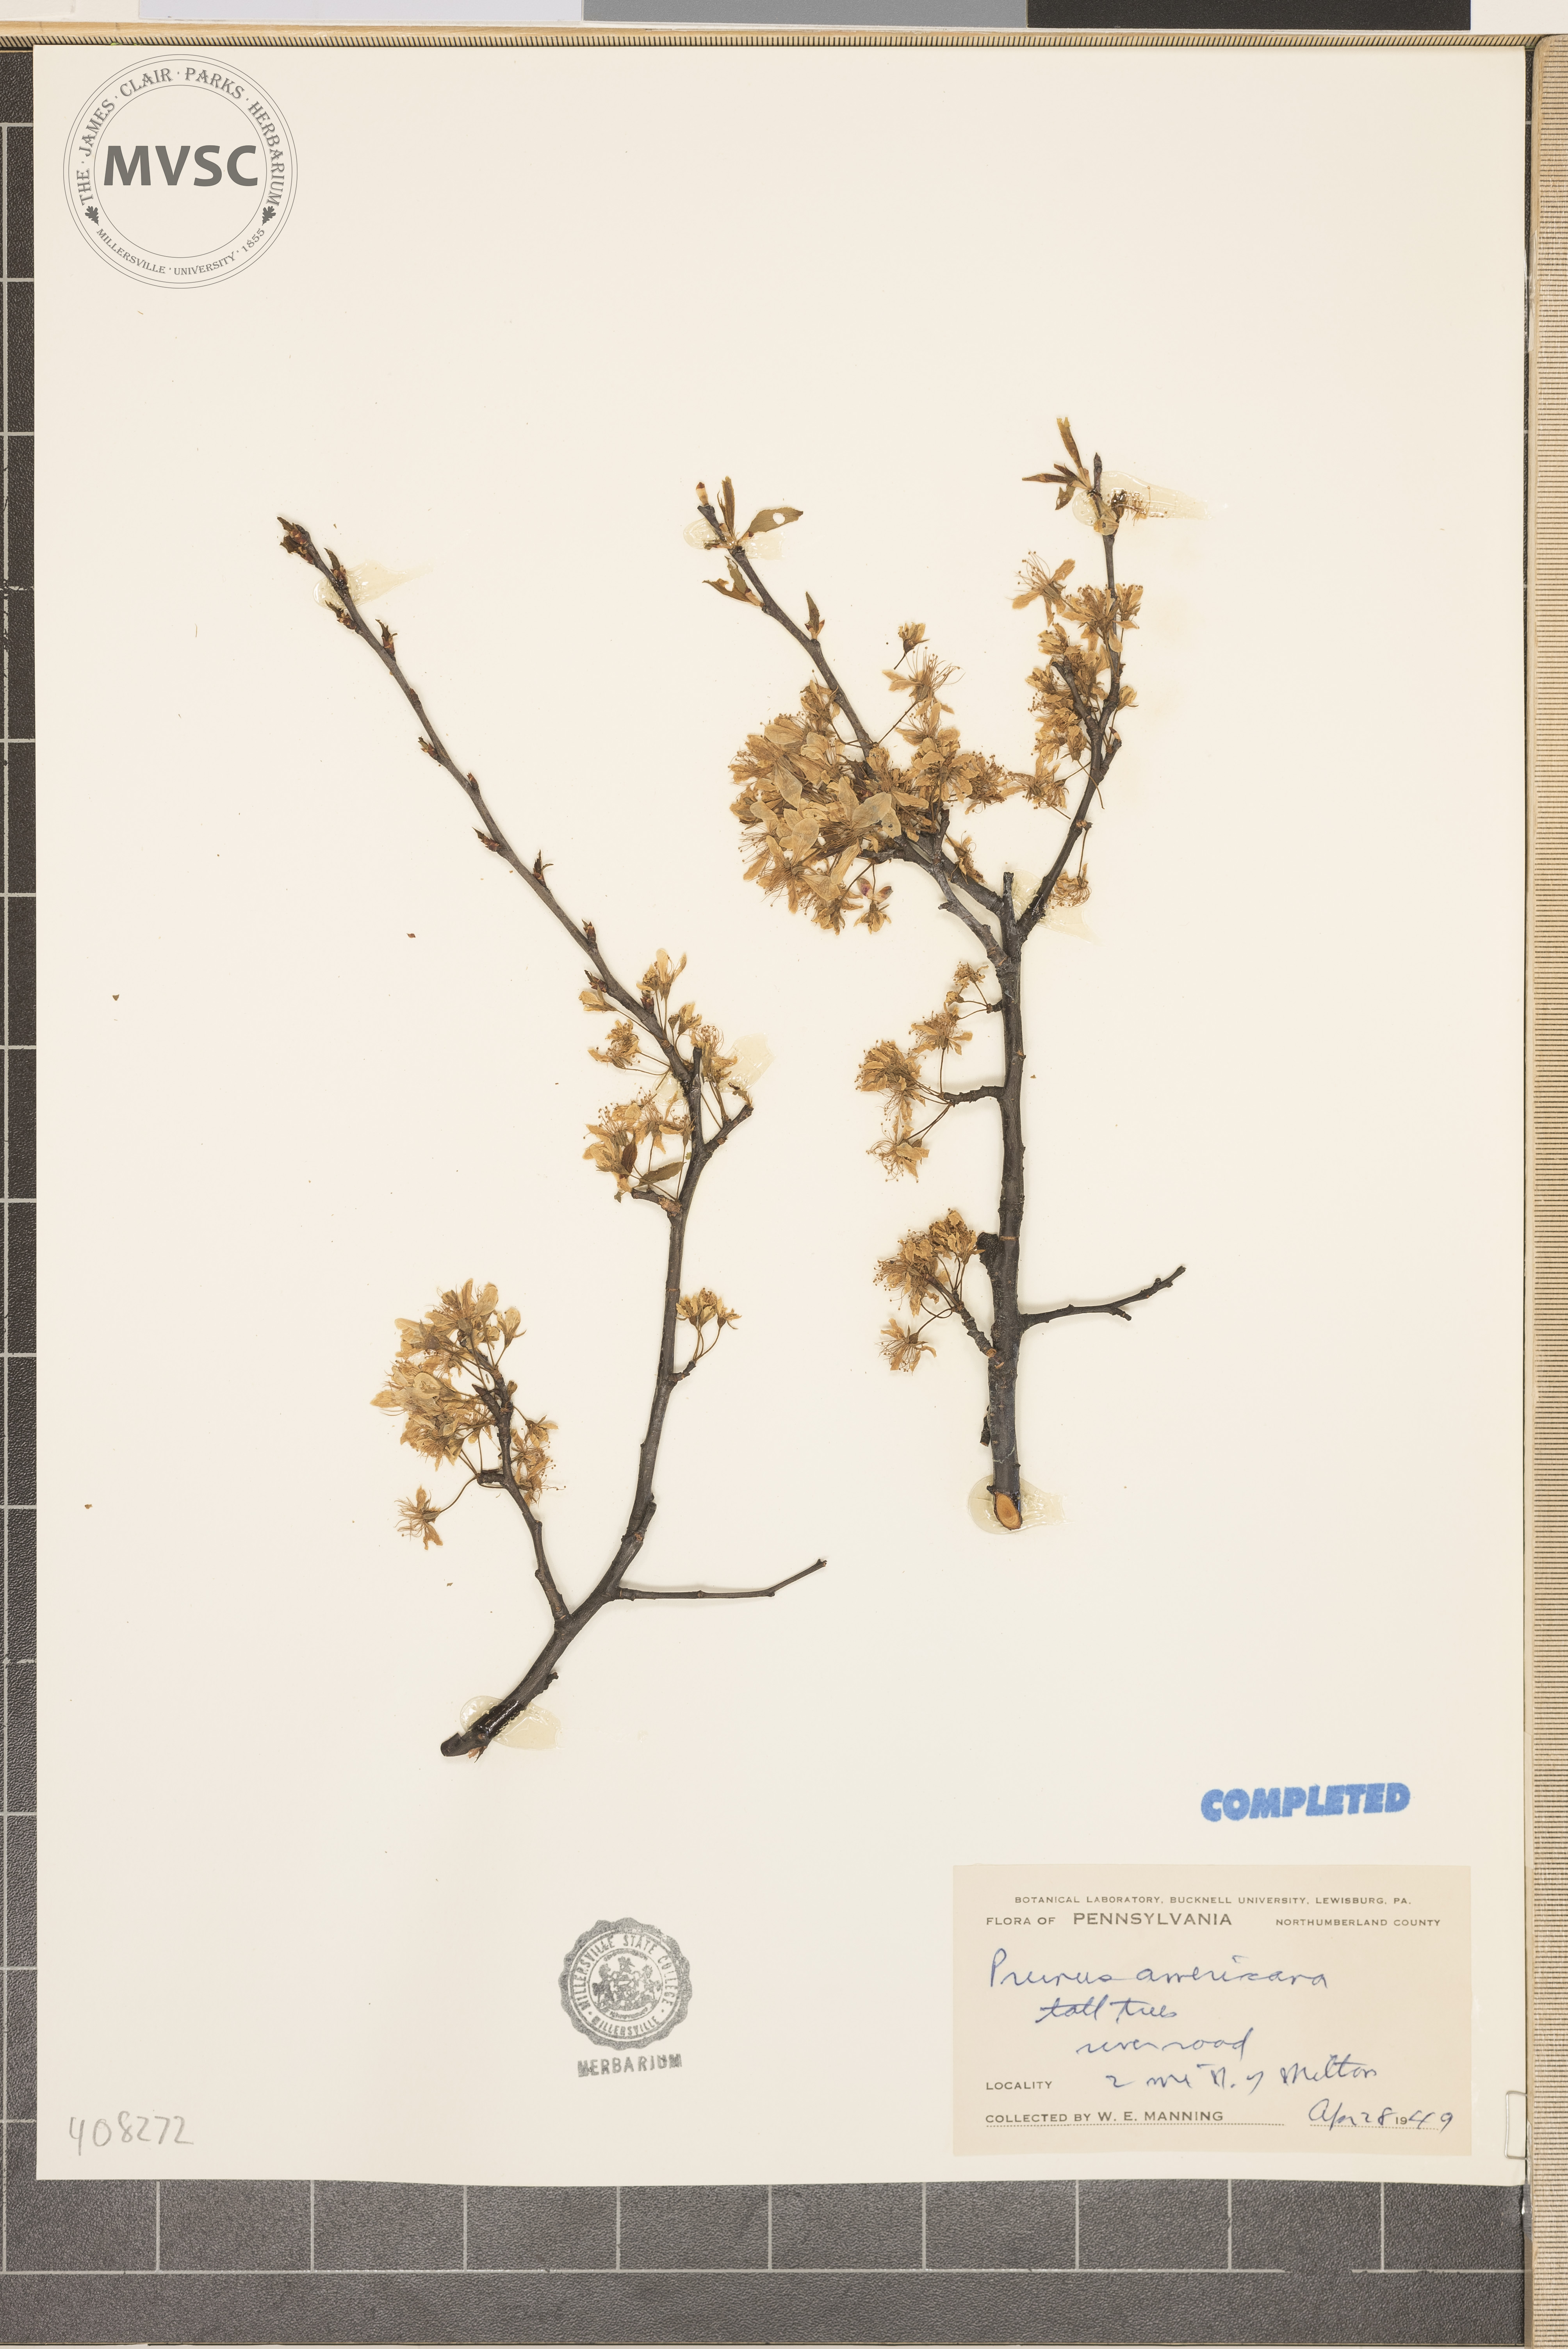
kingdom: Plantae
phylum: Tracheophyta
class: Magnoliopsida
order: Rosales
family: Rosaceae
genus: Prunus
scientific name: Prunus americana
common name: American plum
